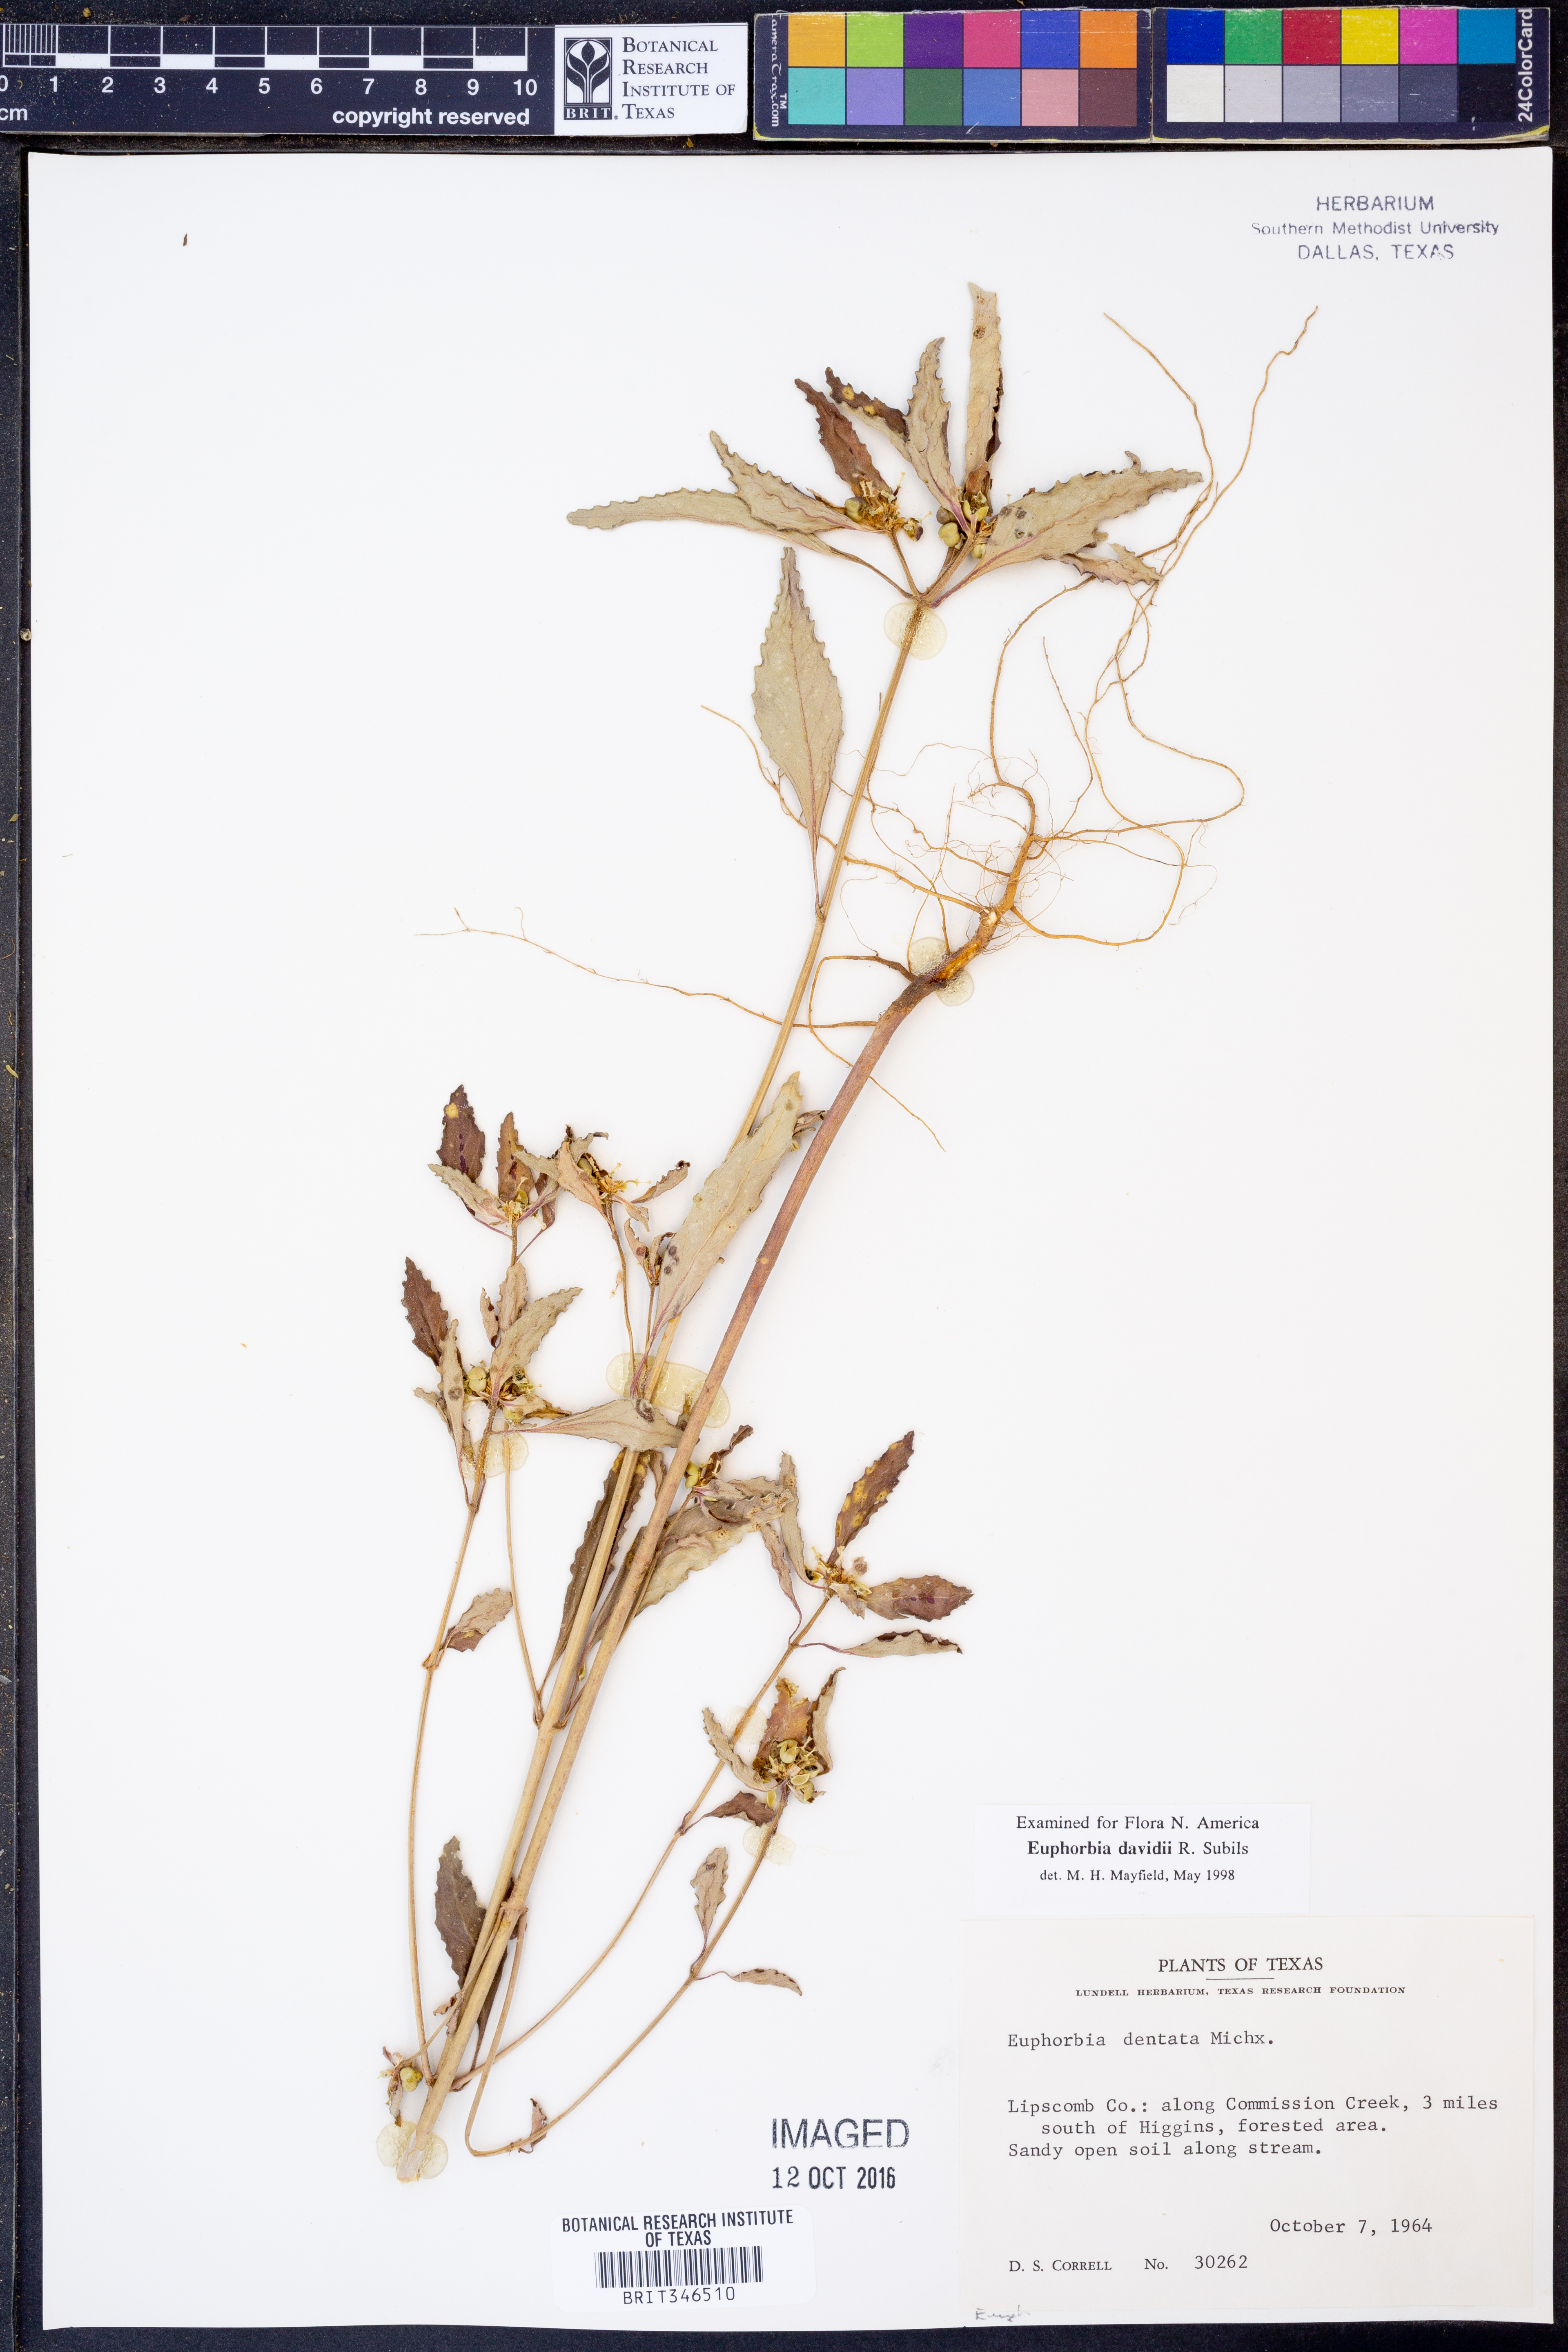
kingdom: Plantae
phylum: Tracheophyta
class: Magnoliopsida
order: Malpighiales
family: Euphorbiaceae
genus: Euphorbia
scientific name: Euphorbia davidii
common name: David's spurge
